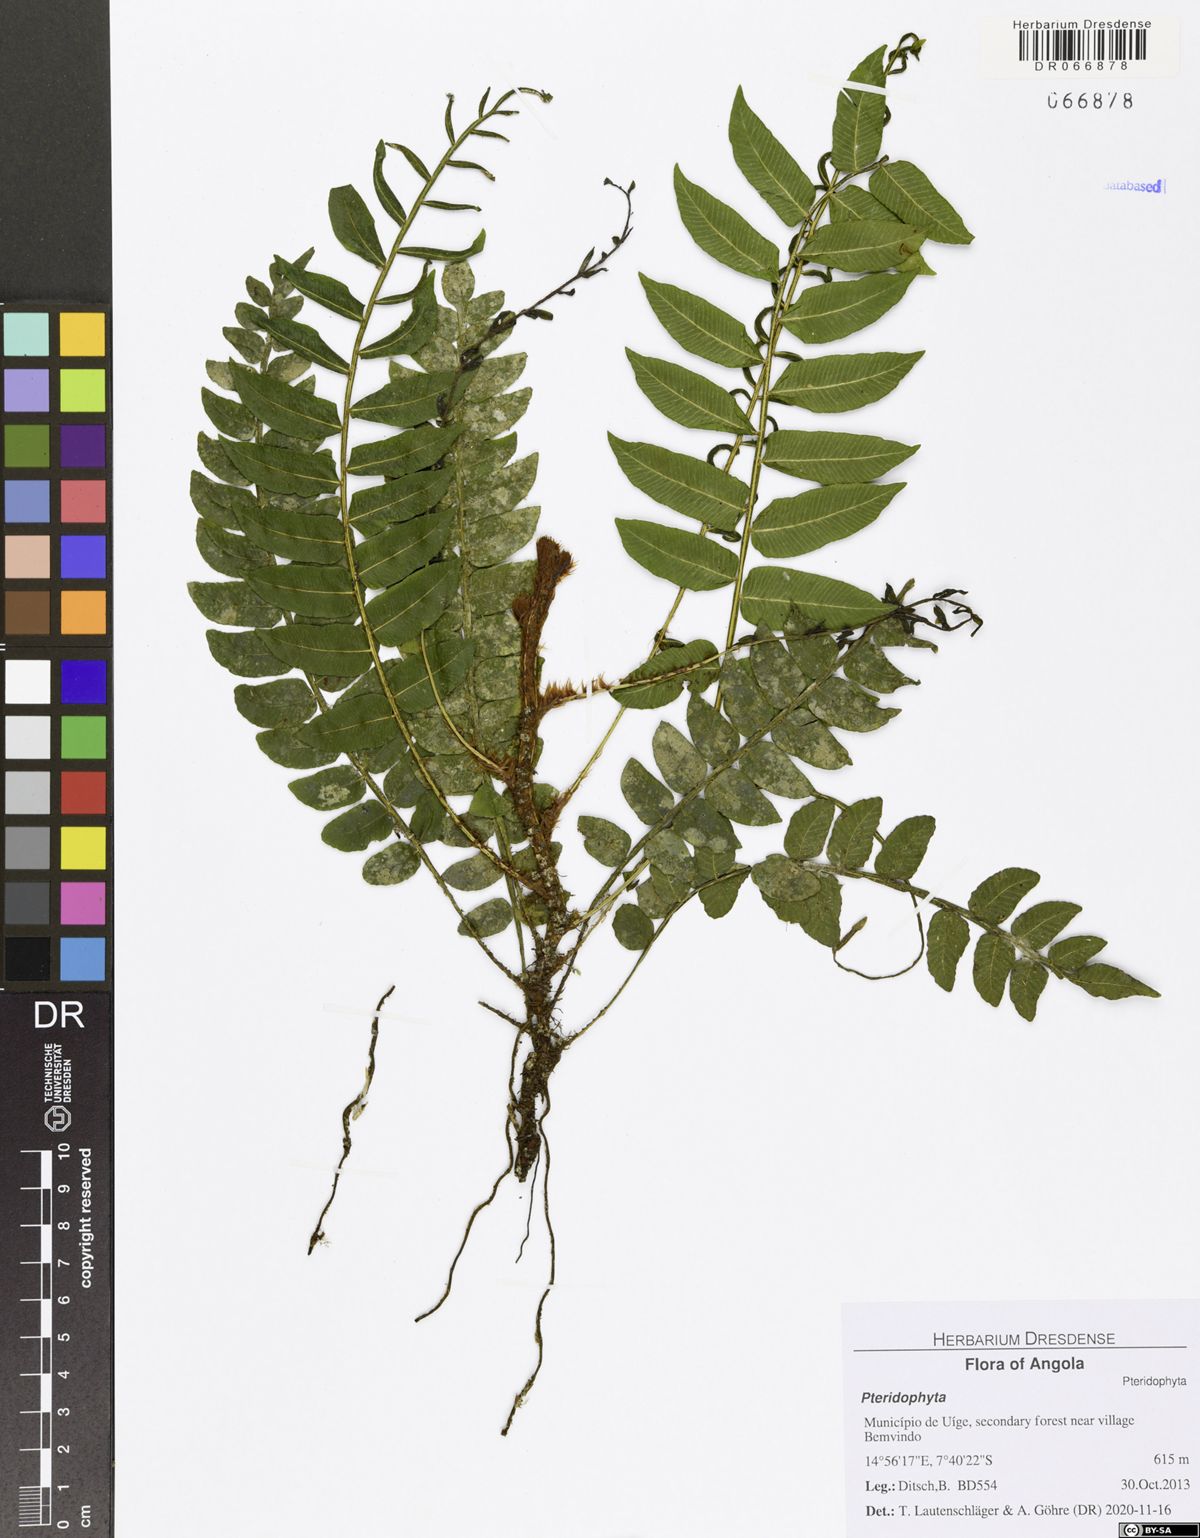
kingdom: Plantae
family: Pteridophyta
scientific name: Pteridophyta
